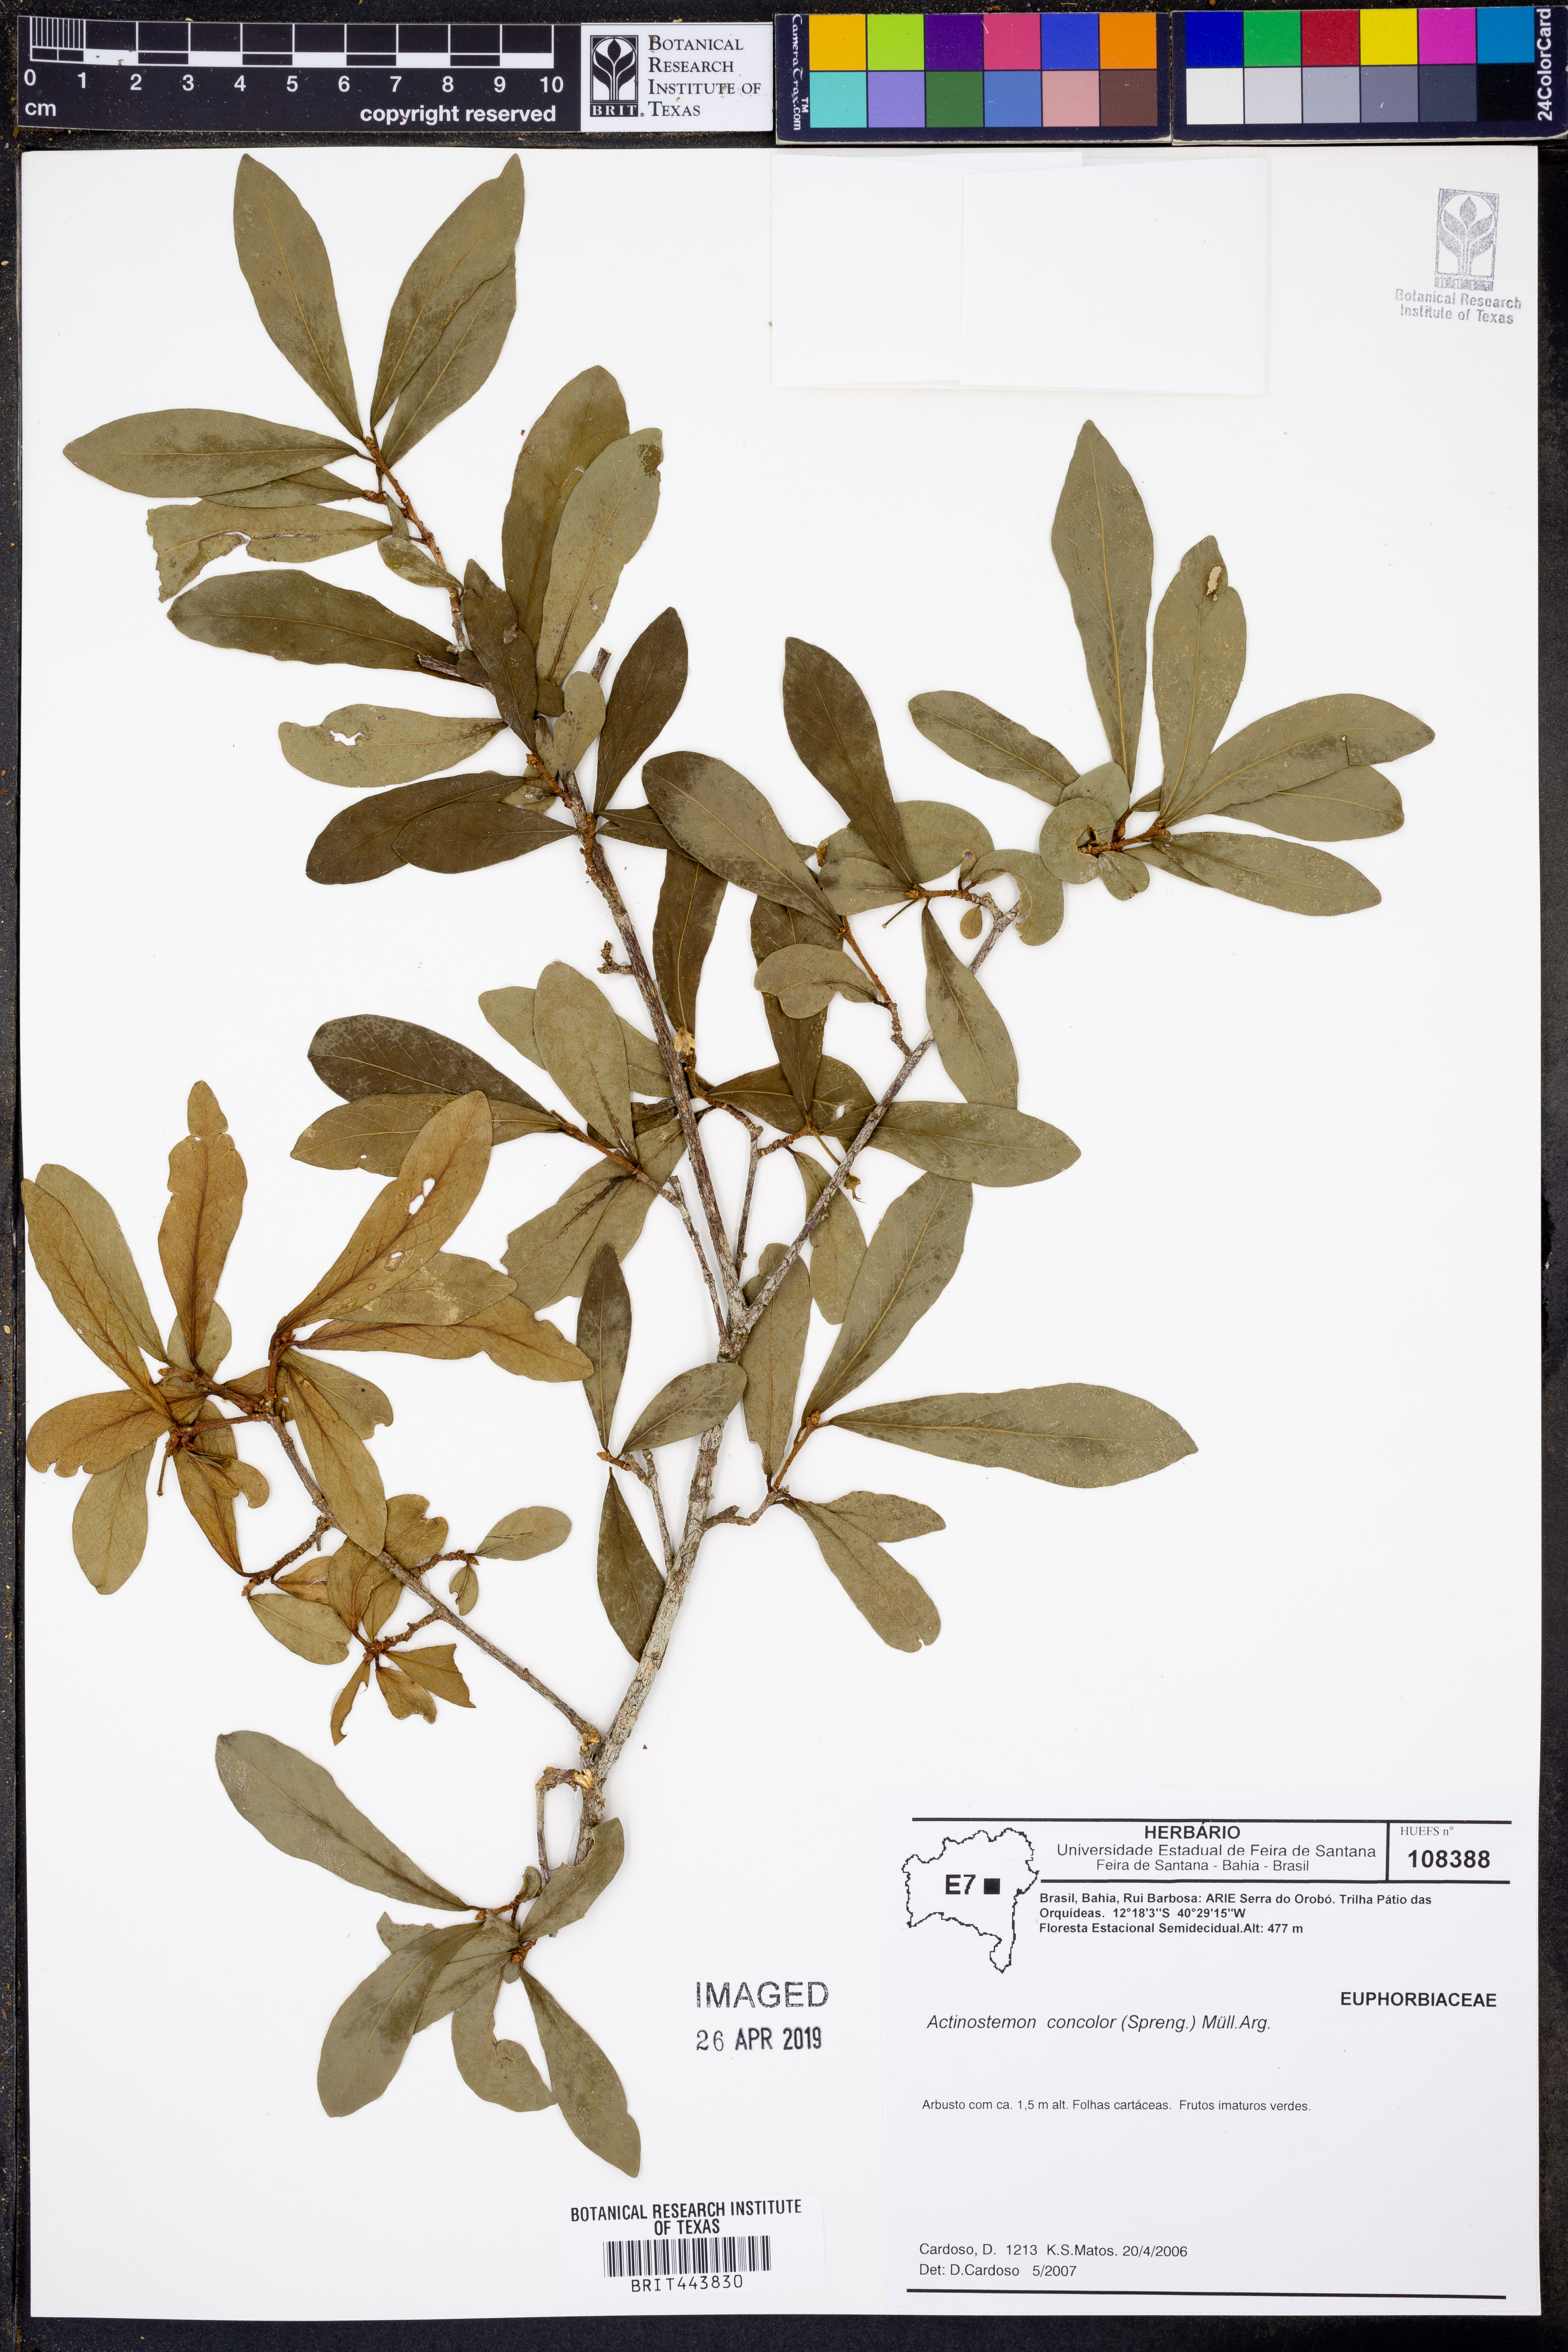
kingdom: Plantae
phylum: Tracheophyta
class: Magnoliopsida
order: Malpighiales
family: Euphorbiaceae
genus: Actinostemon
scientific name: Actinostemon concolor
